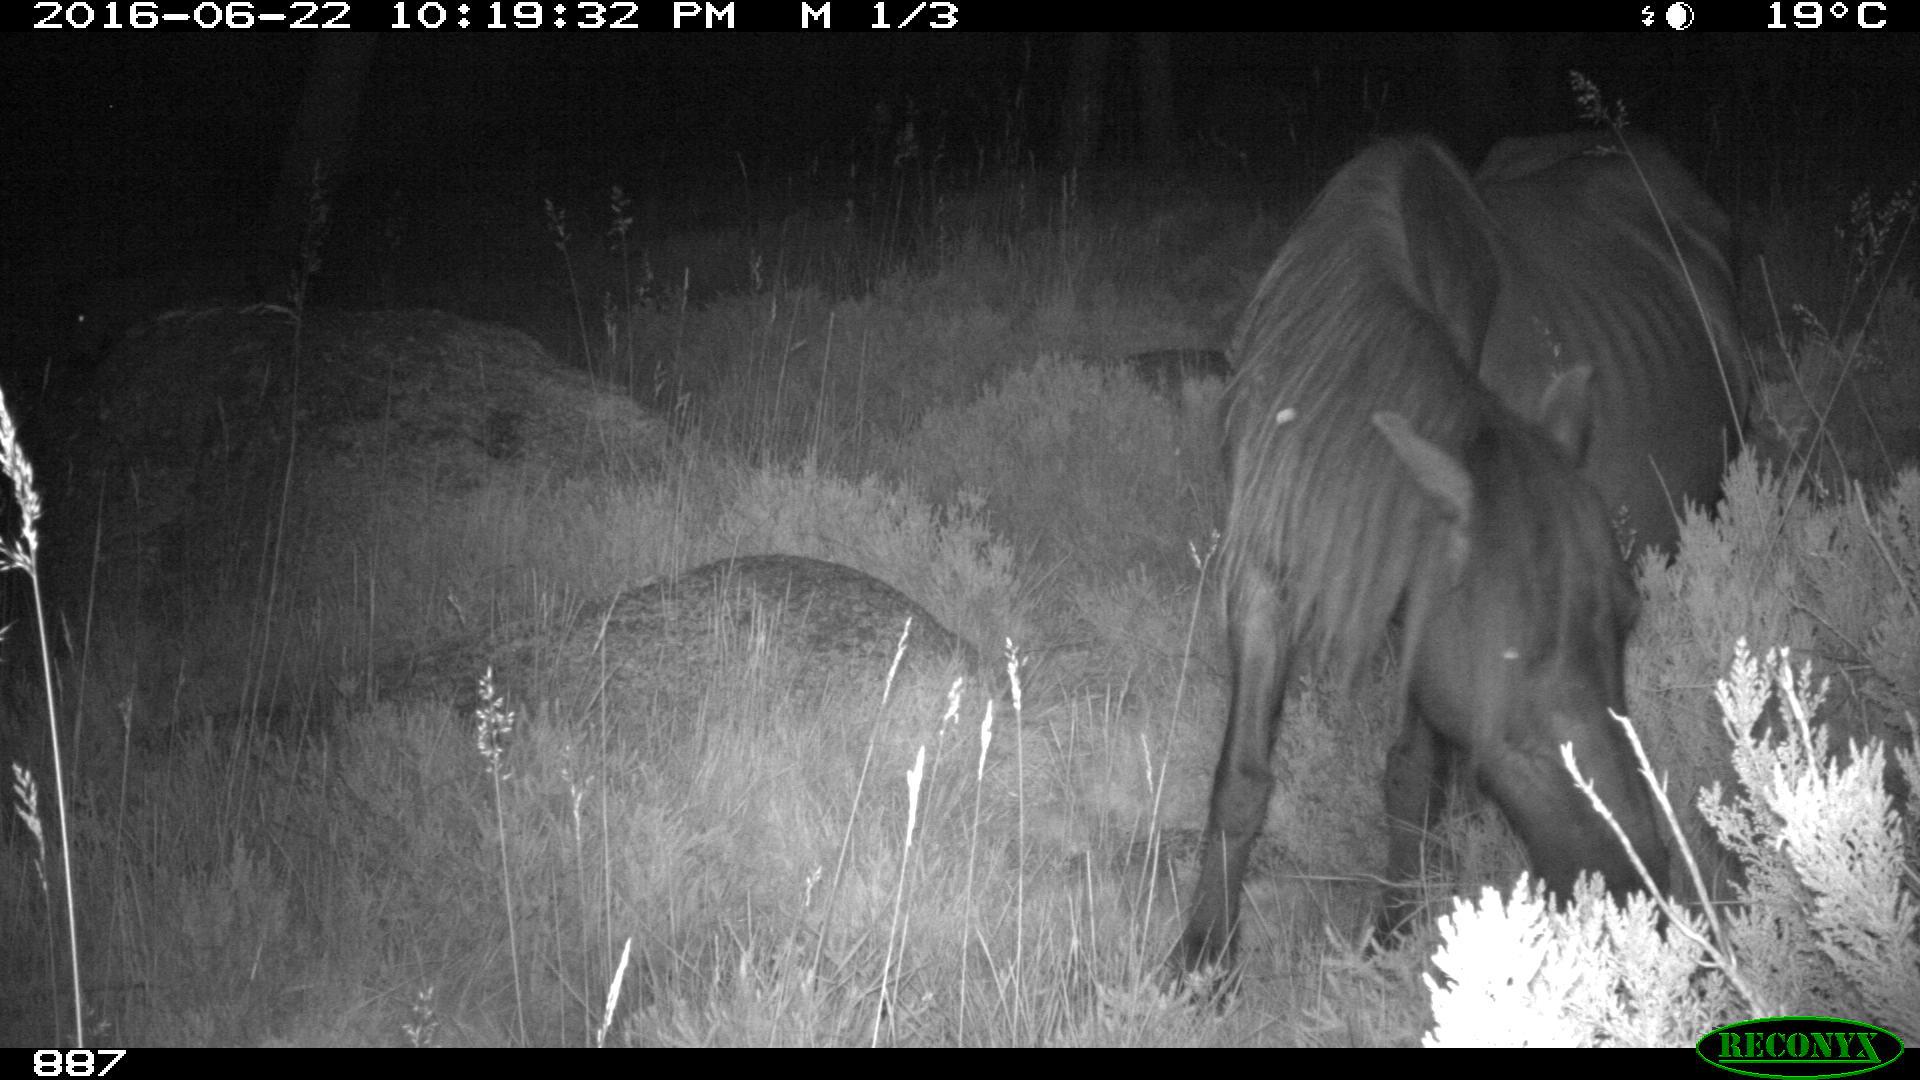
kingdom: Animalia
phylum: Chordata
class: Mammalia
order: Perissodactyla
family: Equidae
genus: Equus
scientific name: Equus caballus
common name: Horse
